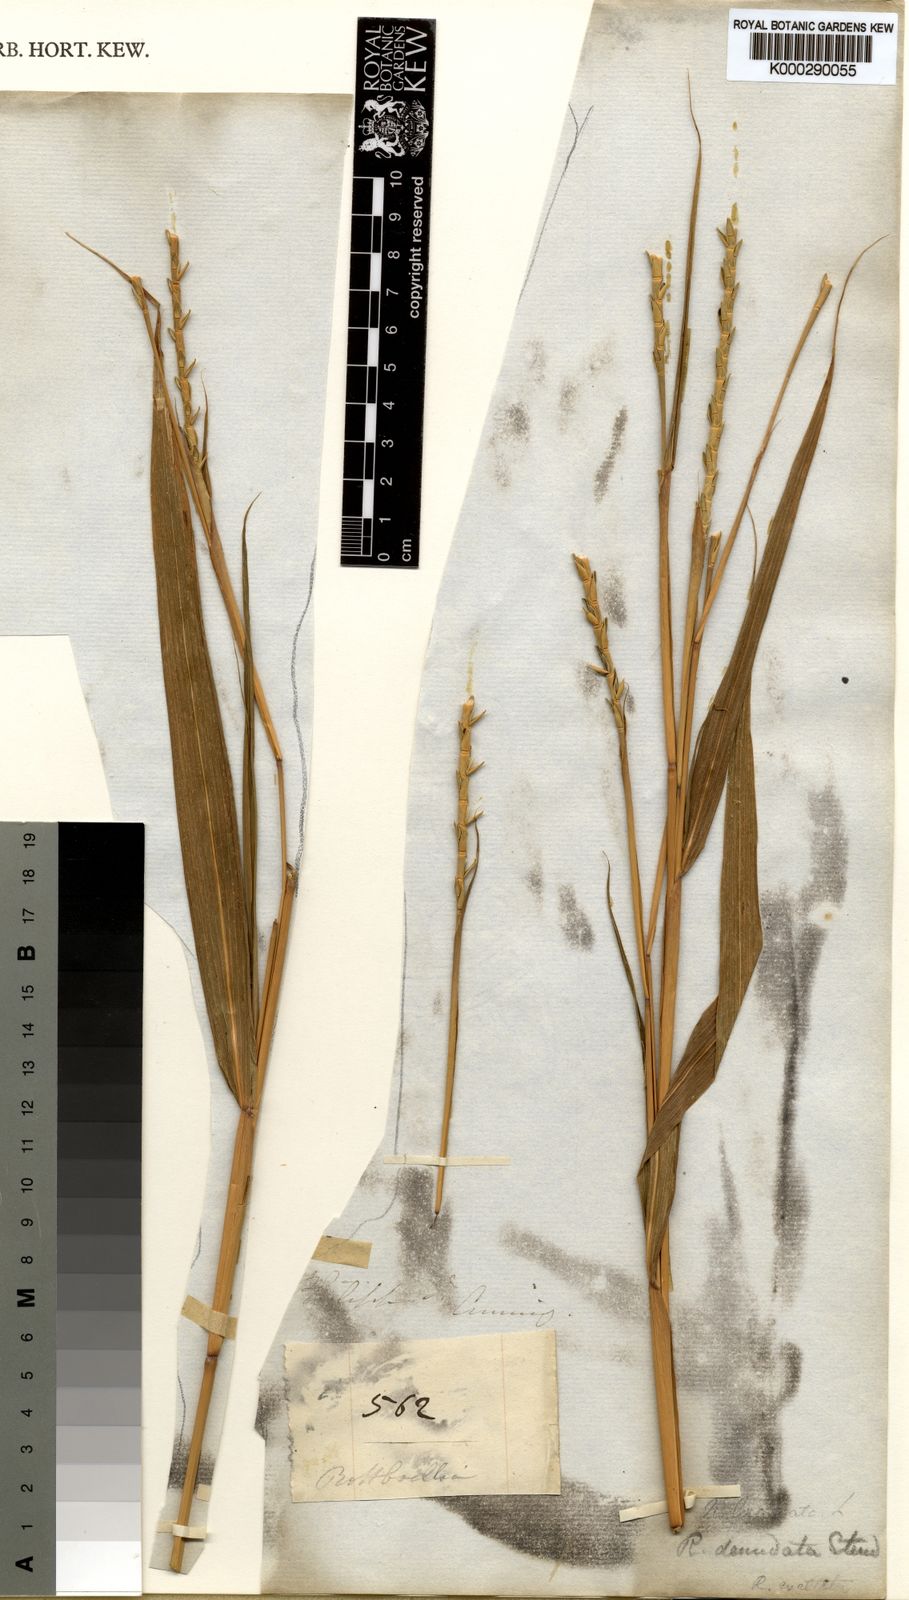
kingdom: Plantae
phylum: Tracheophyta
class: Liliopsida
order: Poales
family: Poaceae
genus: Rottboellia
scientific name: Rottboellia cochinchinensis
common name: Itchgrass
